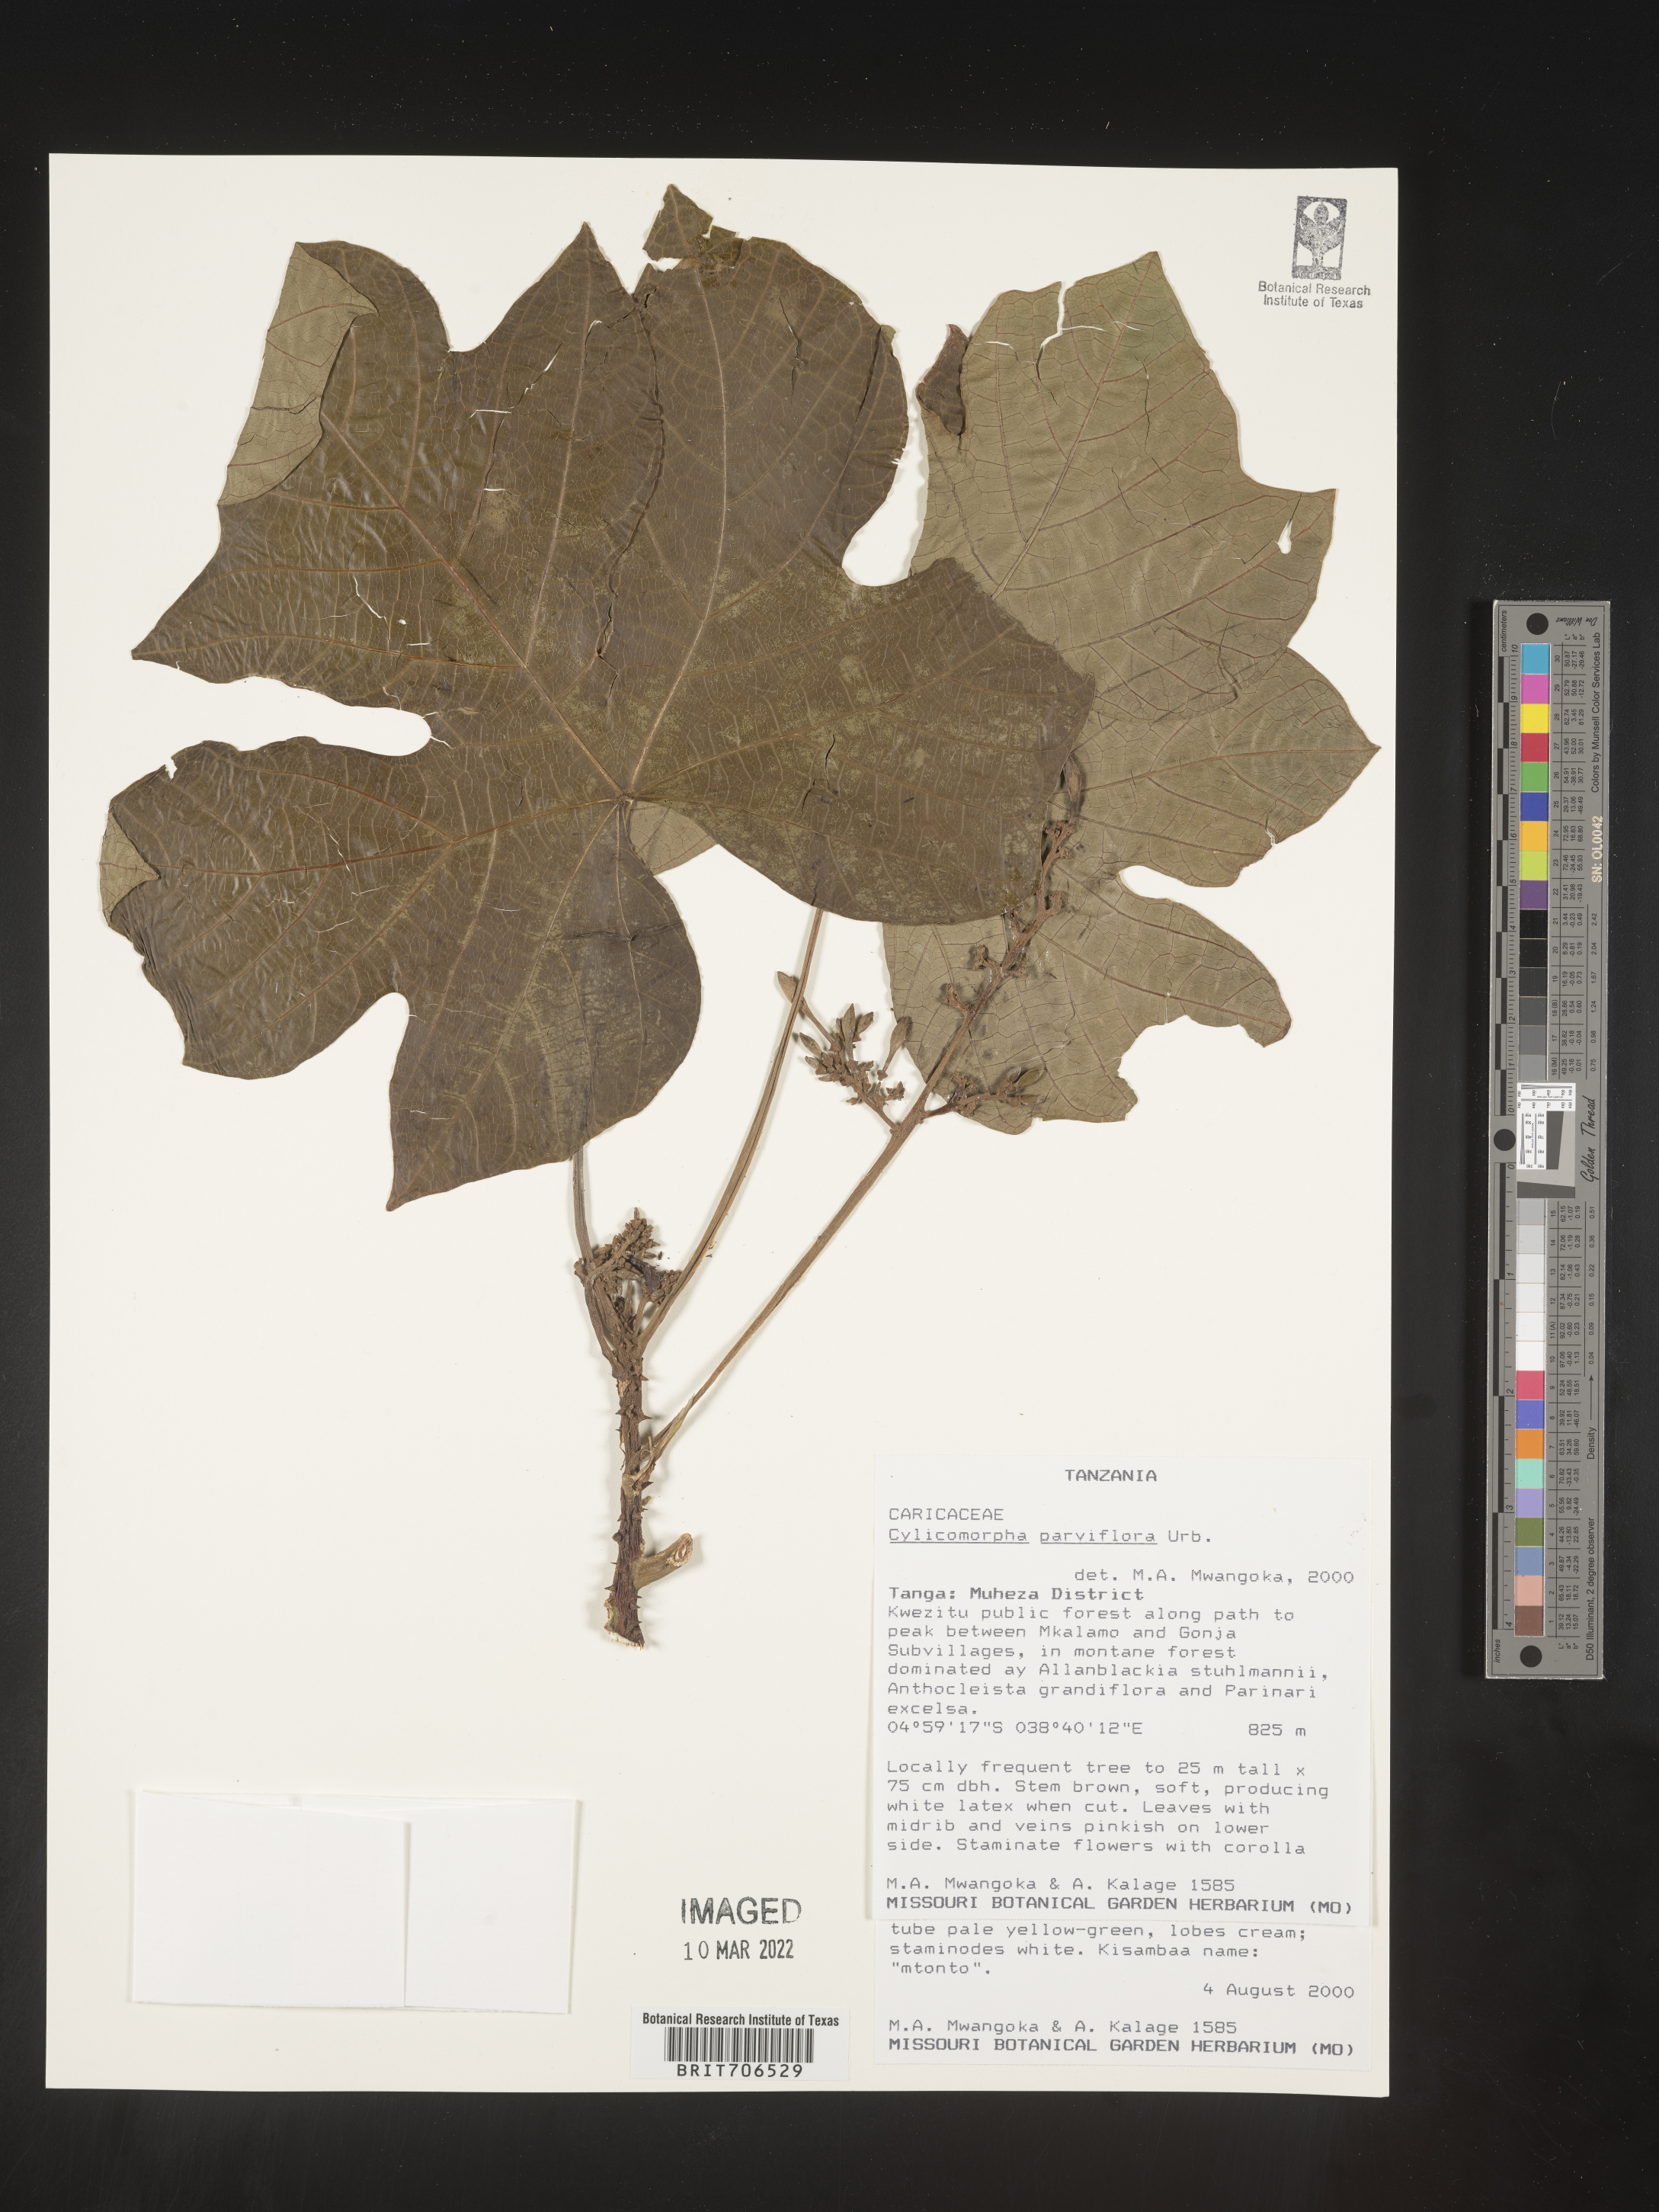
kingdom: Plantae
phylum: Tracheophyta
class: Magnoliopsida
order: Brassicales
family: Caricaceae
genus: Cylicomorpha
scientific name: Cylicomorpha
